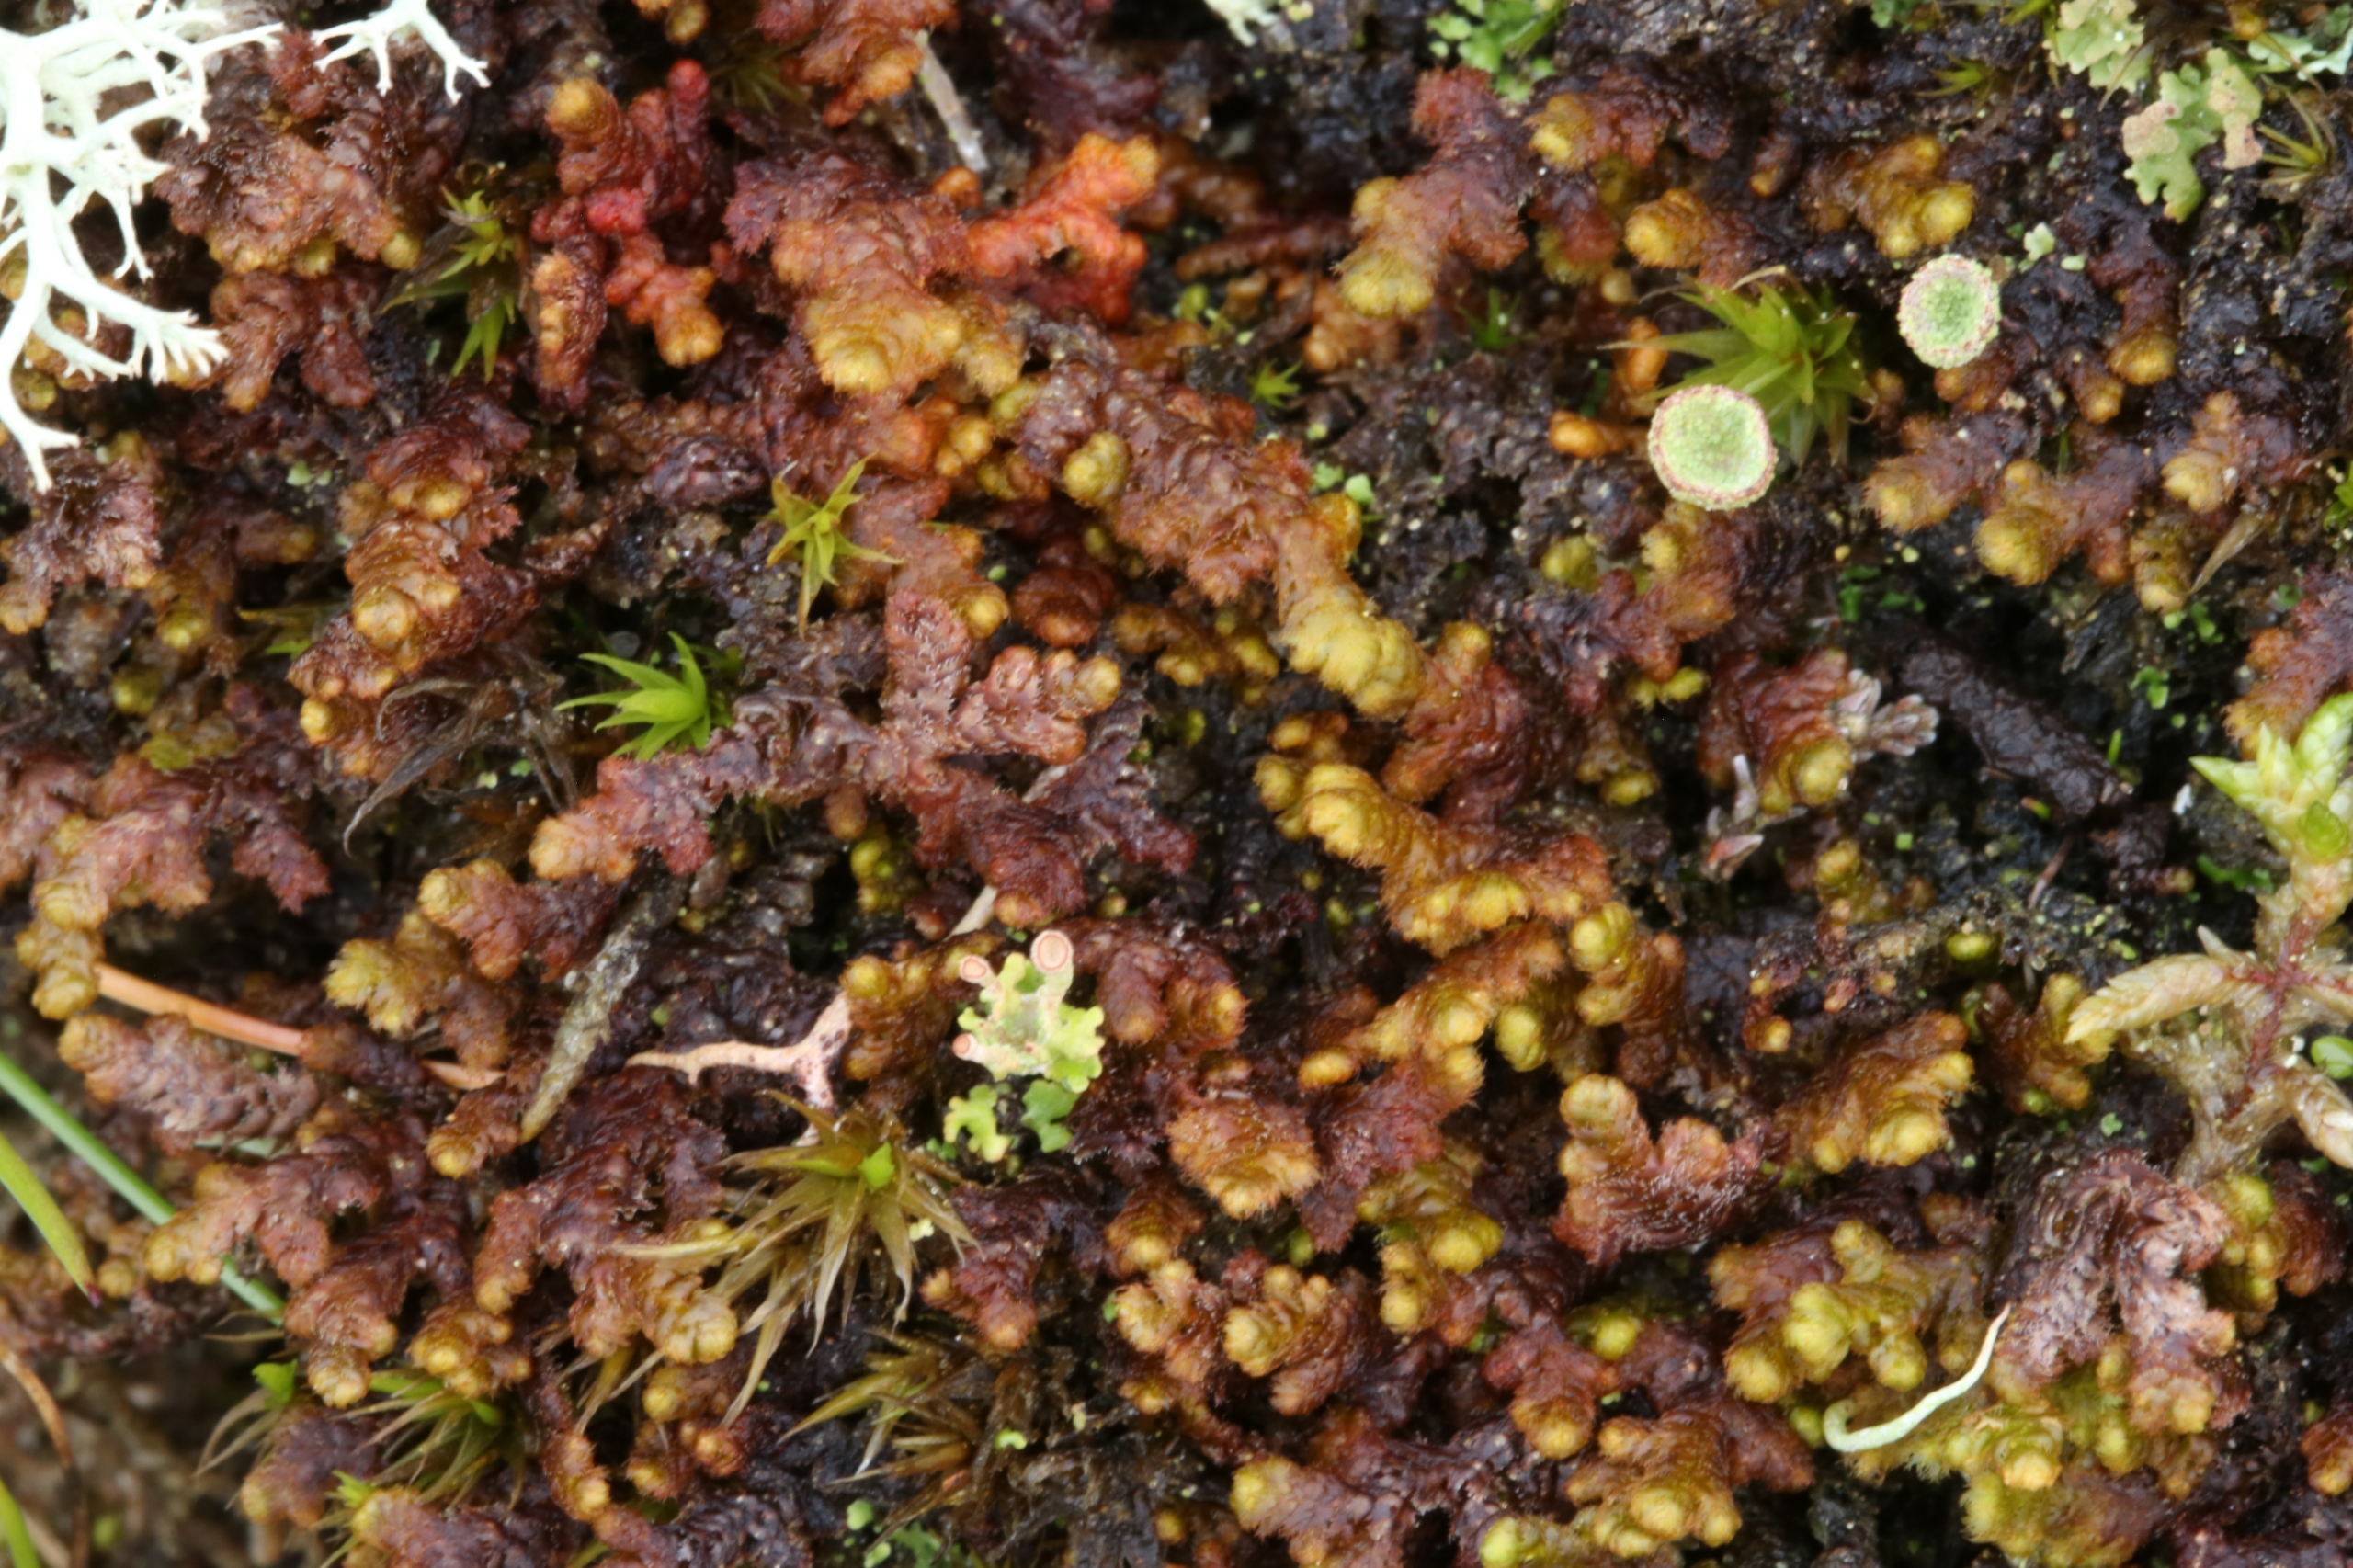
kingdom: Plantae
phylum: Marchantiophyta
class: Jungermanniopsida
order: Ptilidiales
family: Ptilidiaceae
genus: Ptilidium
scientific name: Ptilidium ciliare
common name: Almindelig frynsemos
